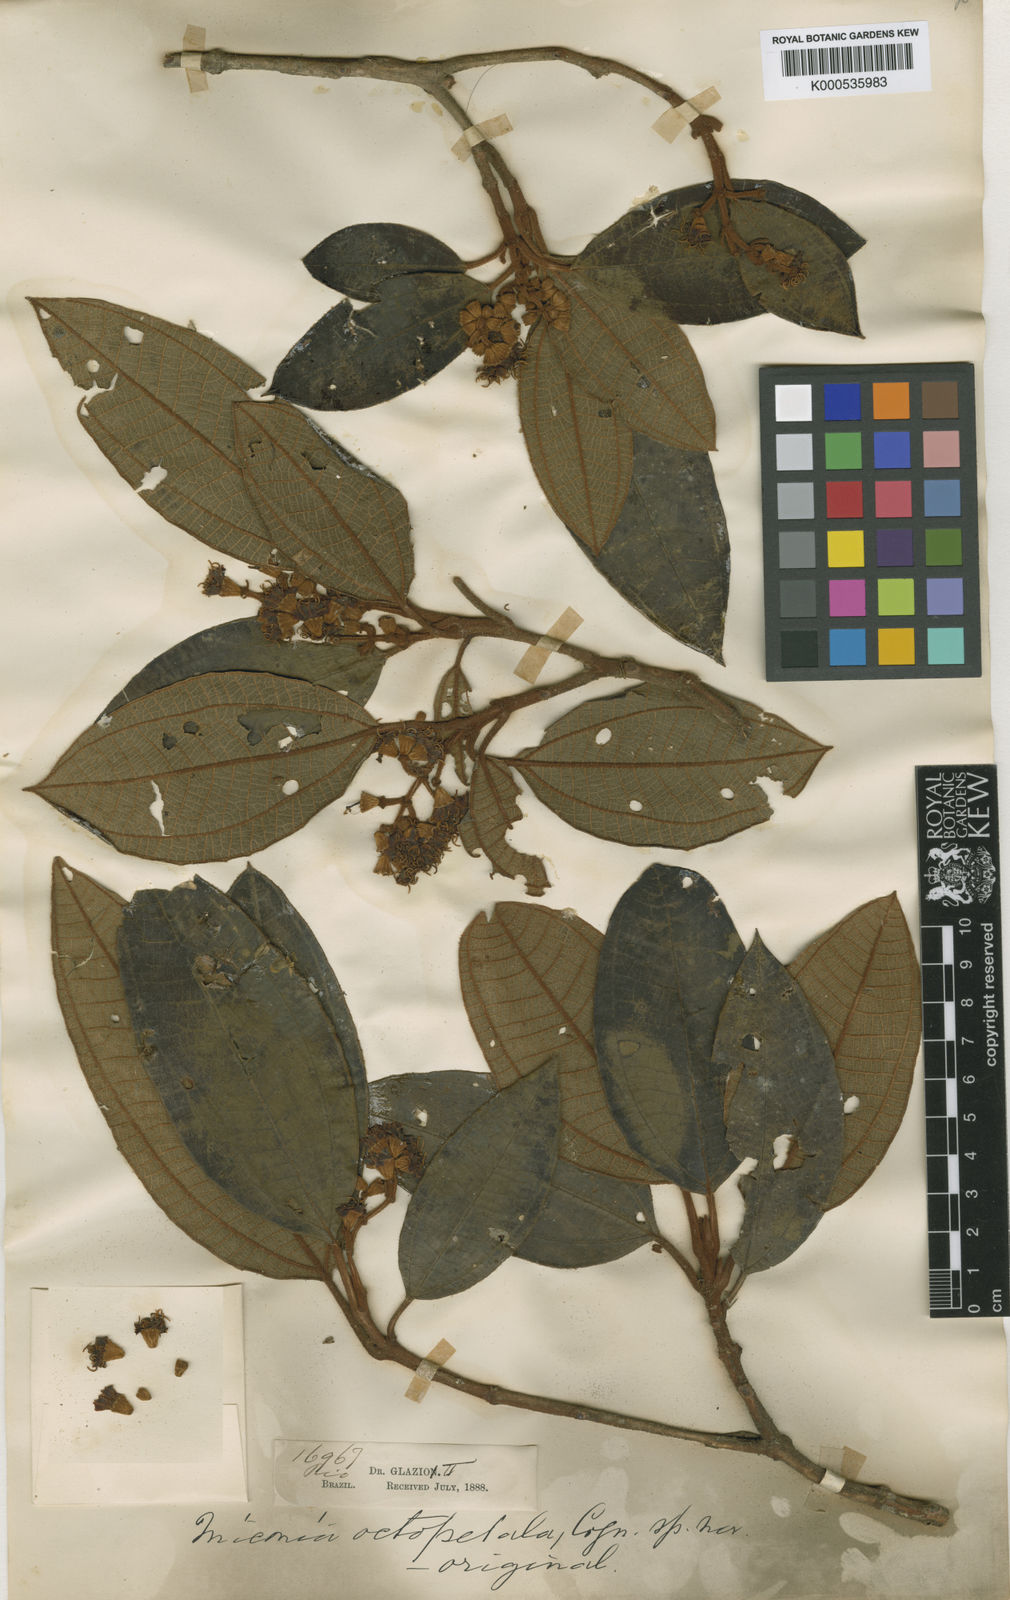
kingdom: Plantae
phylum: Tracheophyta
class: Magnoliopsida
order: Myrtales
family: Melastomataceae
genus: Miconia
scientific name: Miconia octopetala
